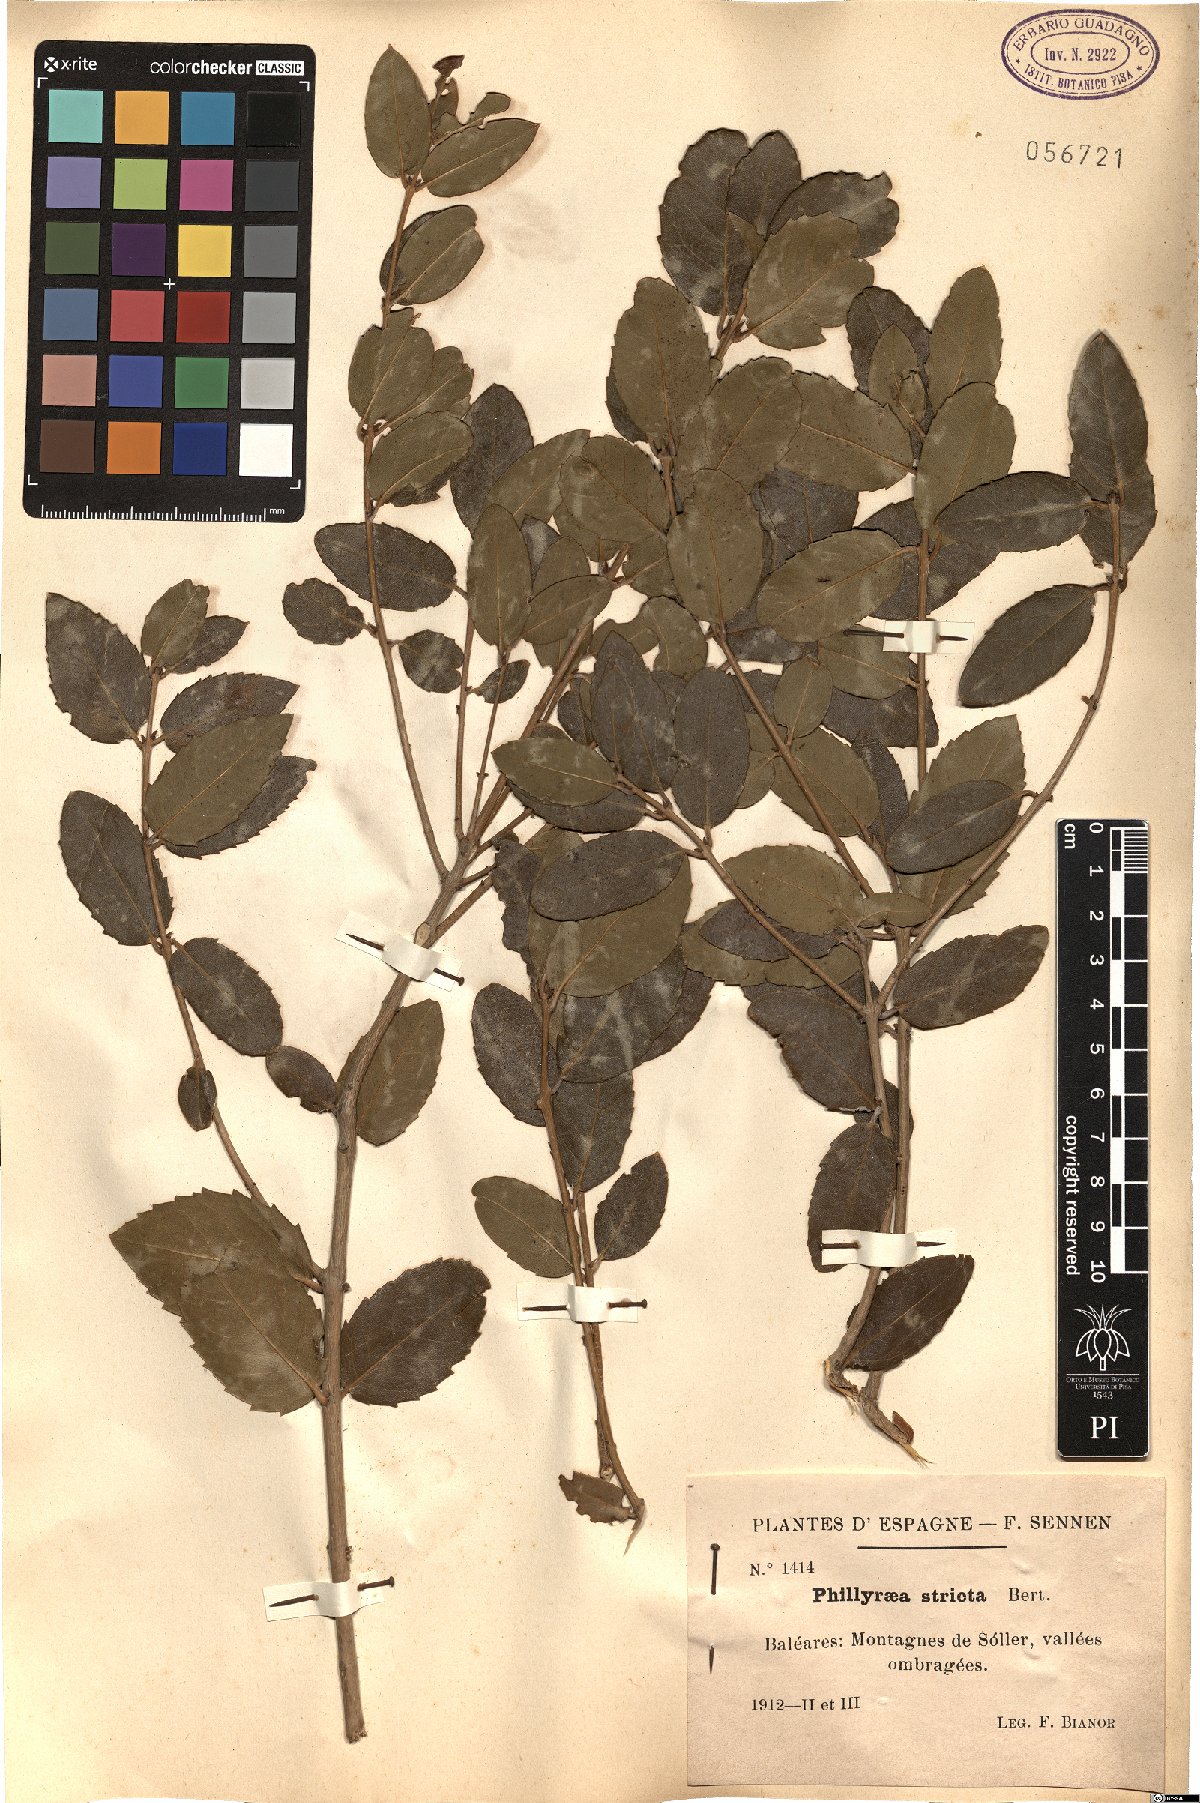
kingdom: Plantae
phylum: Tracheophyta
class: Magnoliopsida
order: Lamiales
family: Oleaceae
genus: Phillyrea
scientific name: Phillyrea latifolia
